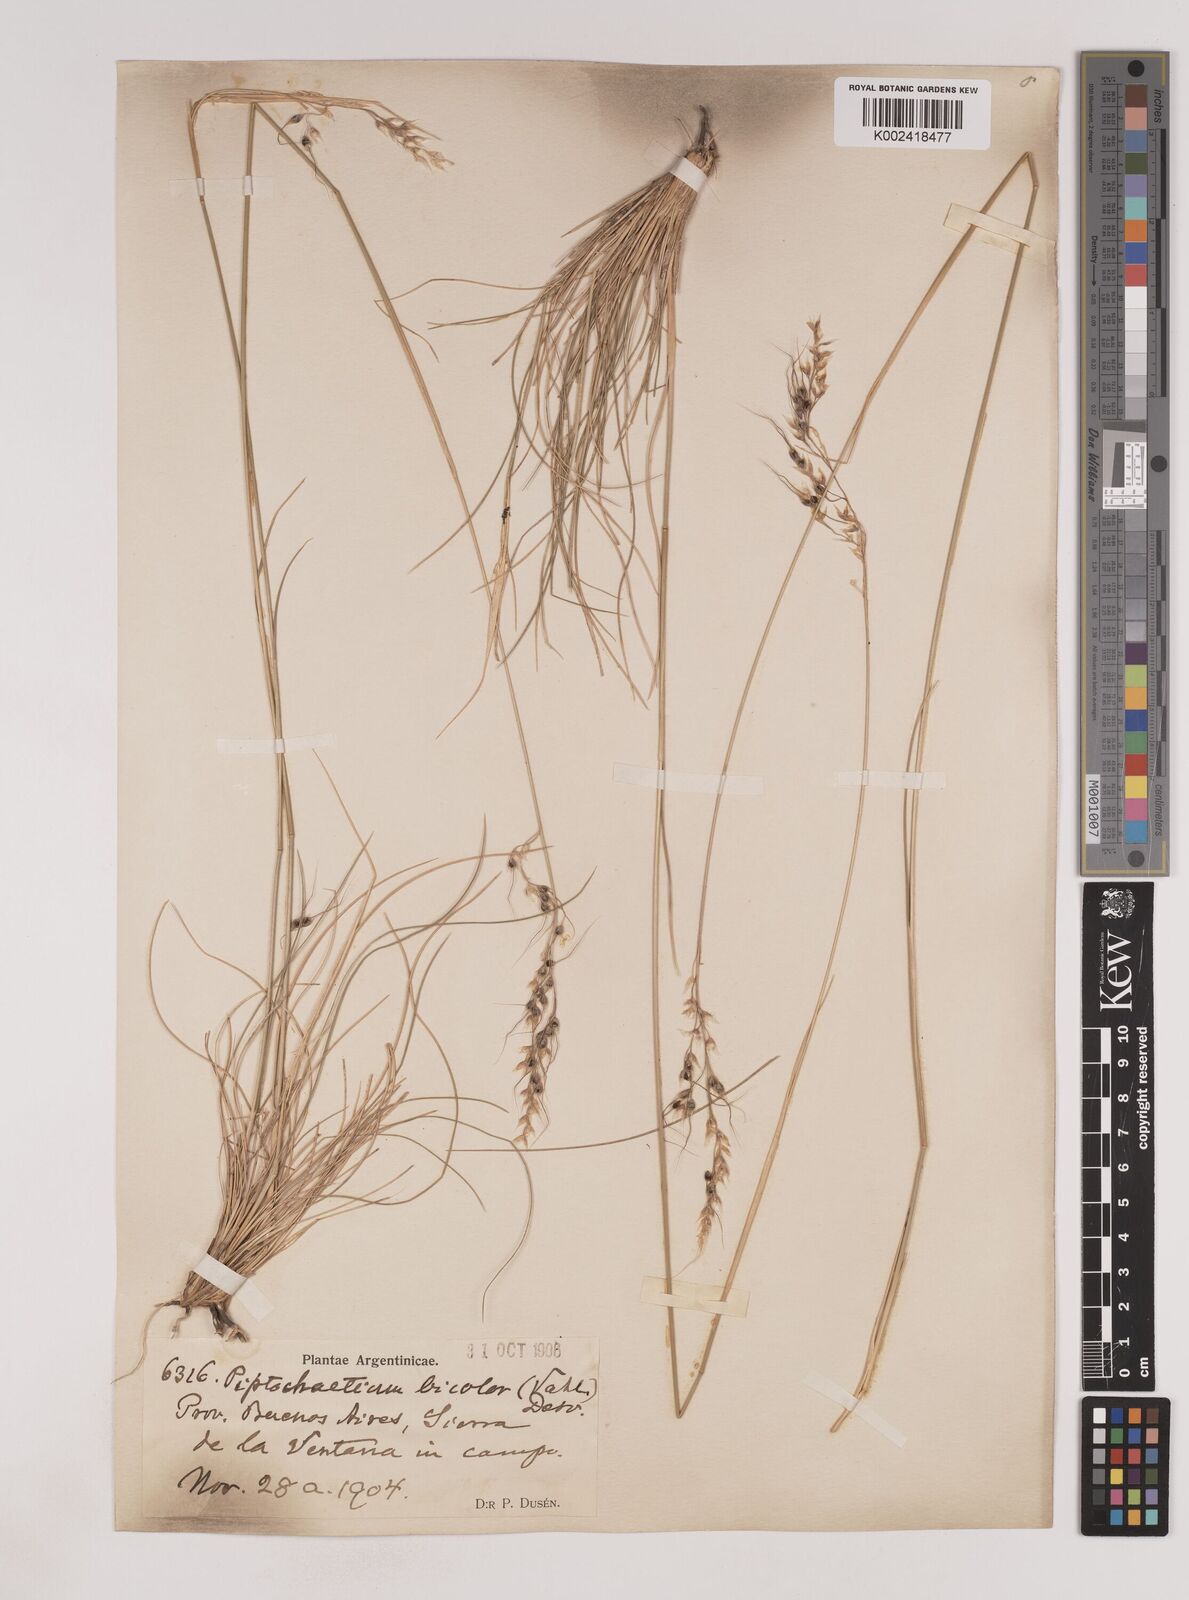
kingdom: Plantae
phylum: Tracheophyta
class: Liliopsida
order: Poales
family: Poaceae
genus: Piptochaetium
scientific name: Piptochaetium bicolor
